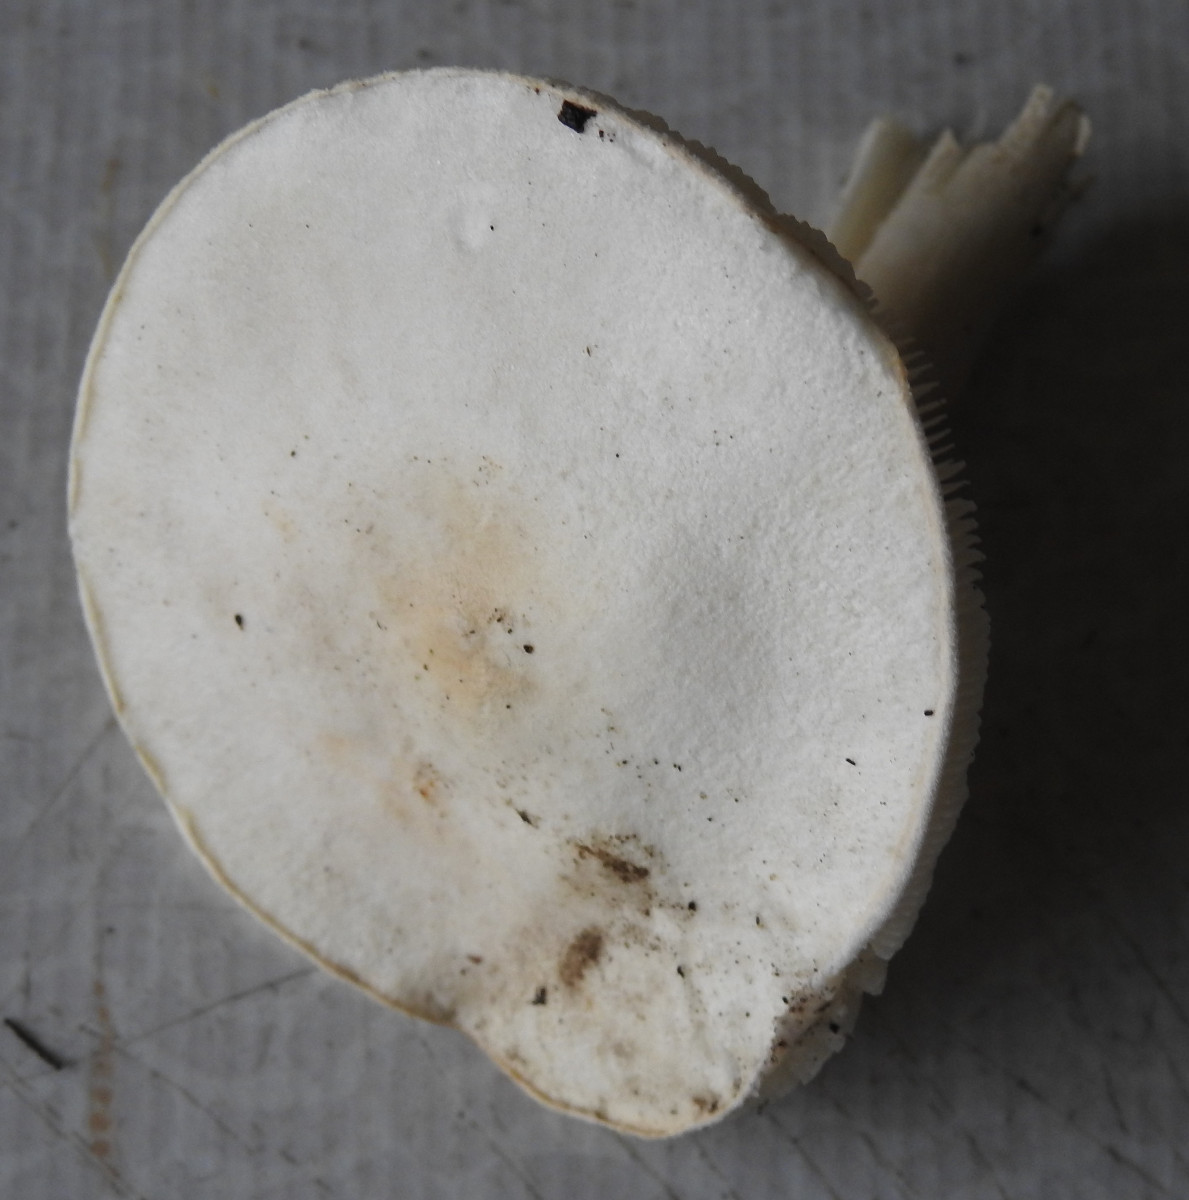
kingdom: Fungi
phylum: Basidiomycota
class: Agaricomycetes
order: Agaricales
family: Agaricaceae
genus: Leucoagaricus
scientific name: Leucoagaricus leucothites
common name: rosabladet silkehat
